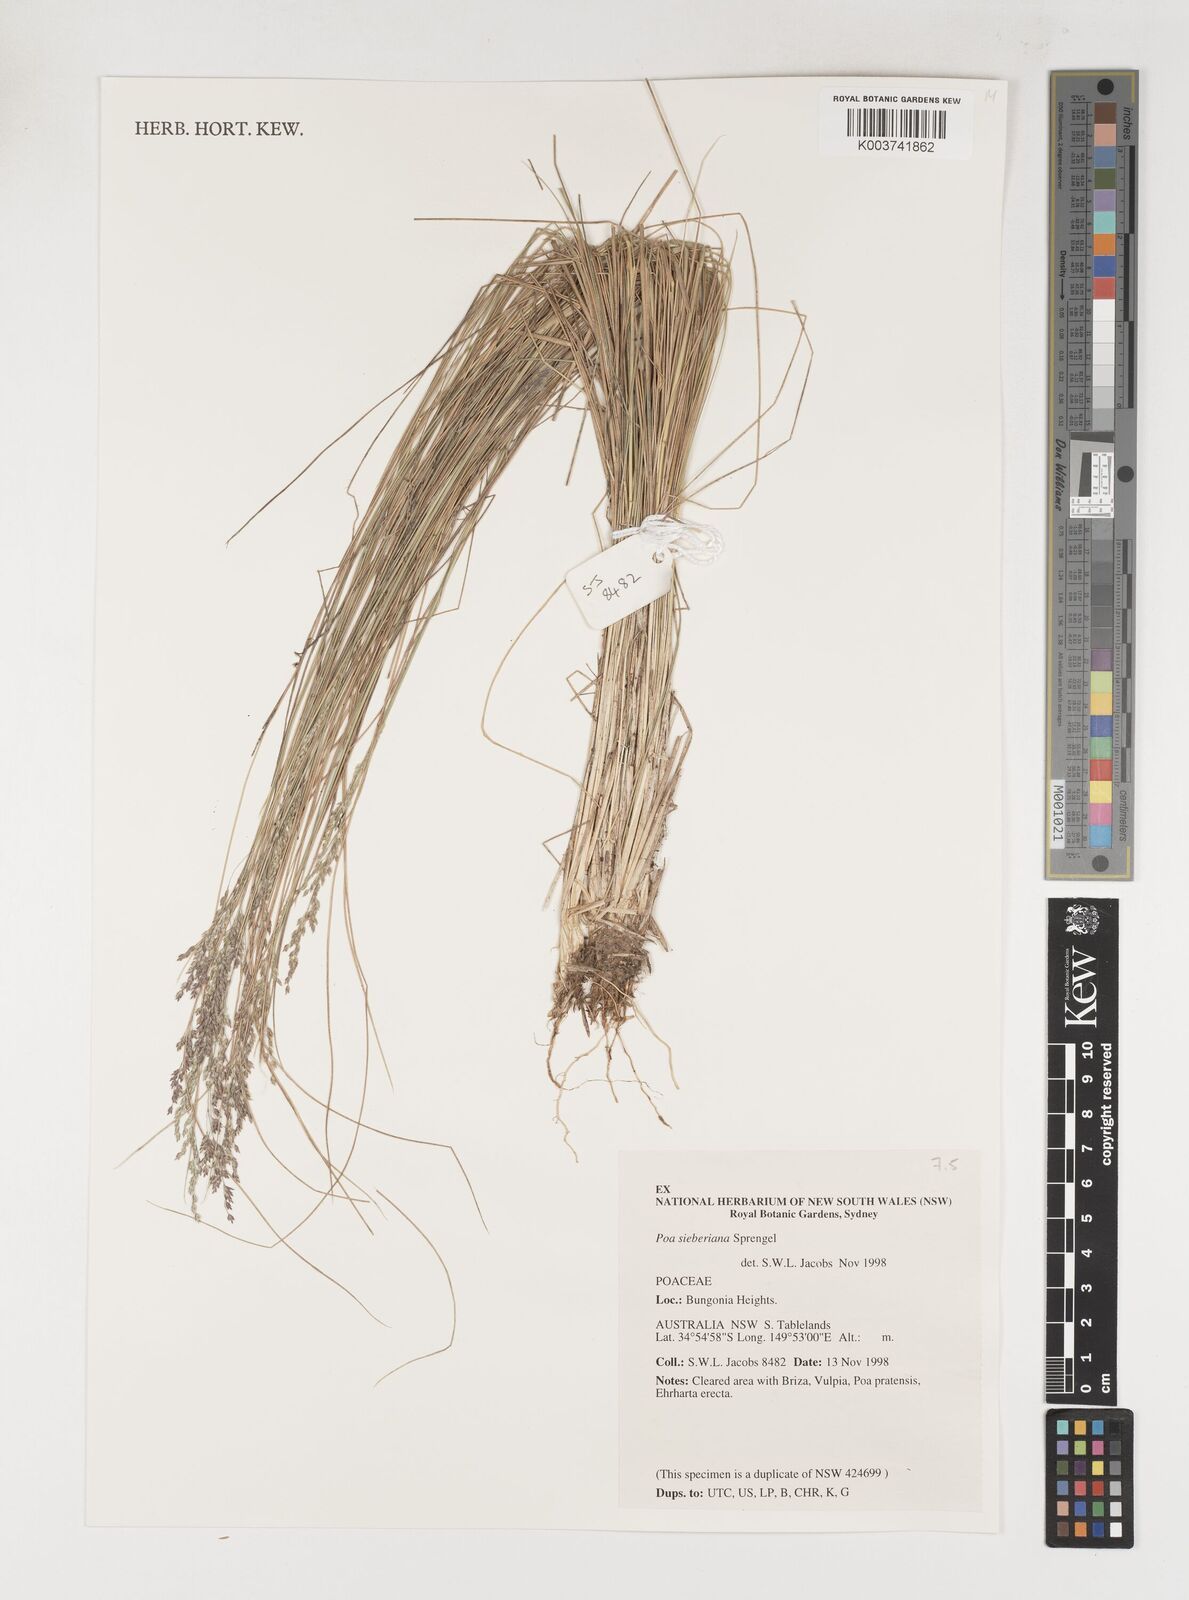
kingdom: Plantae
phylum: Tracheophyta
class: Liliopsida
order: Poales
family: Poaceae
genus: Poa
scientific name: Poa sieberiana
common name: Tussock poa
